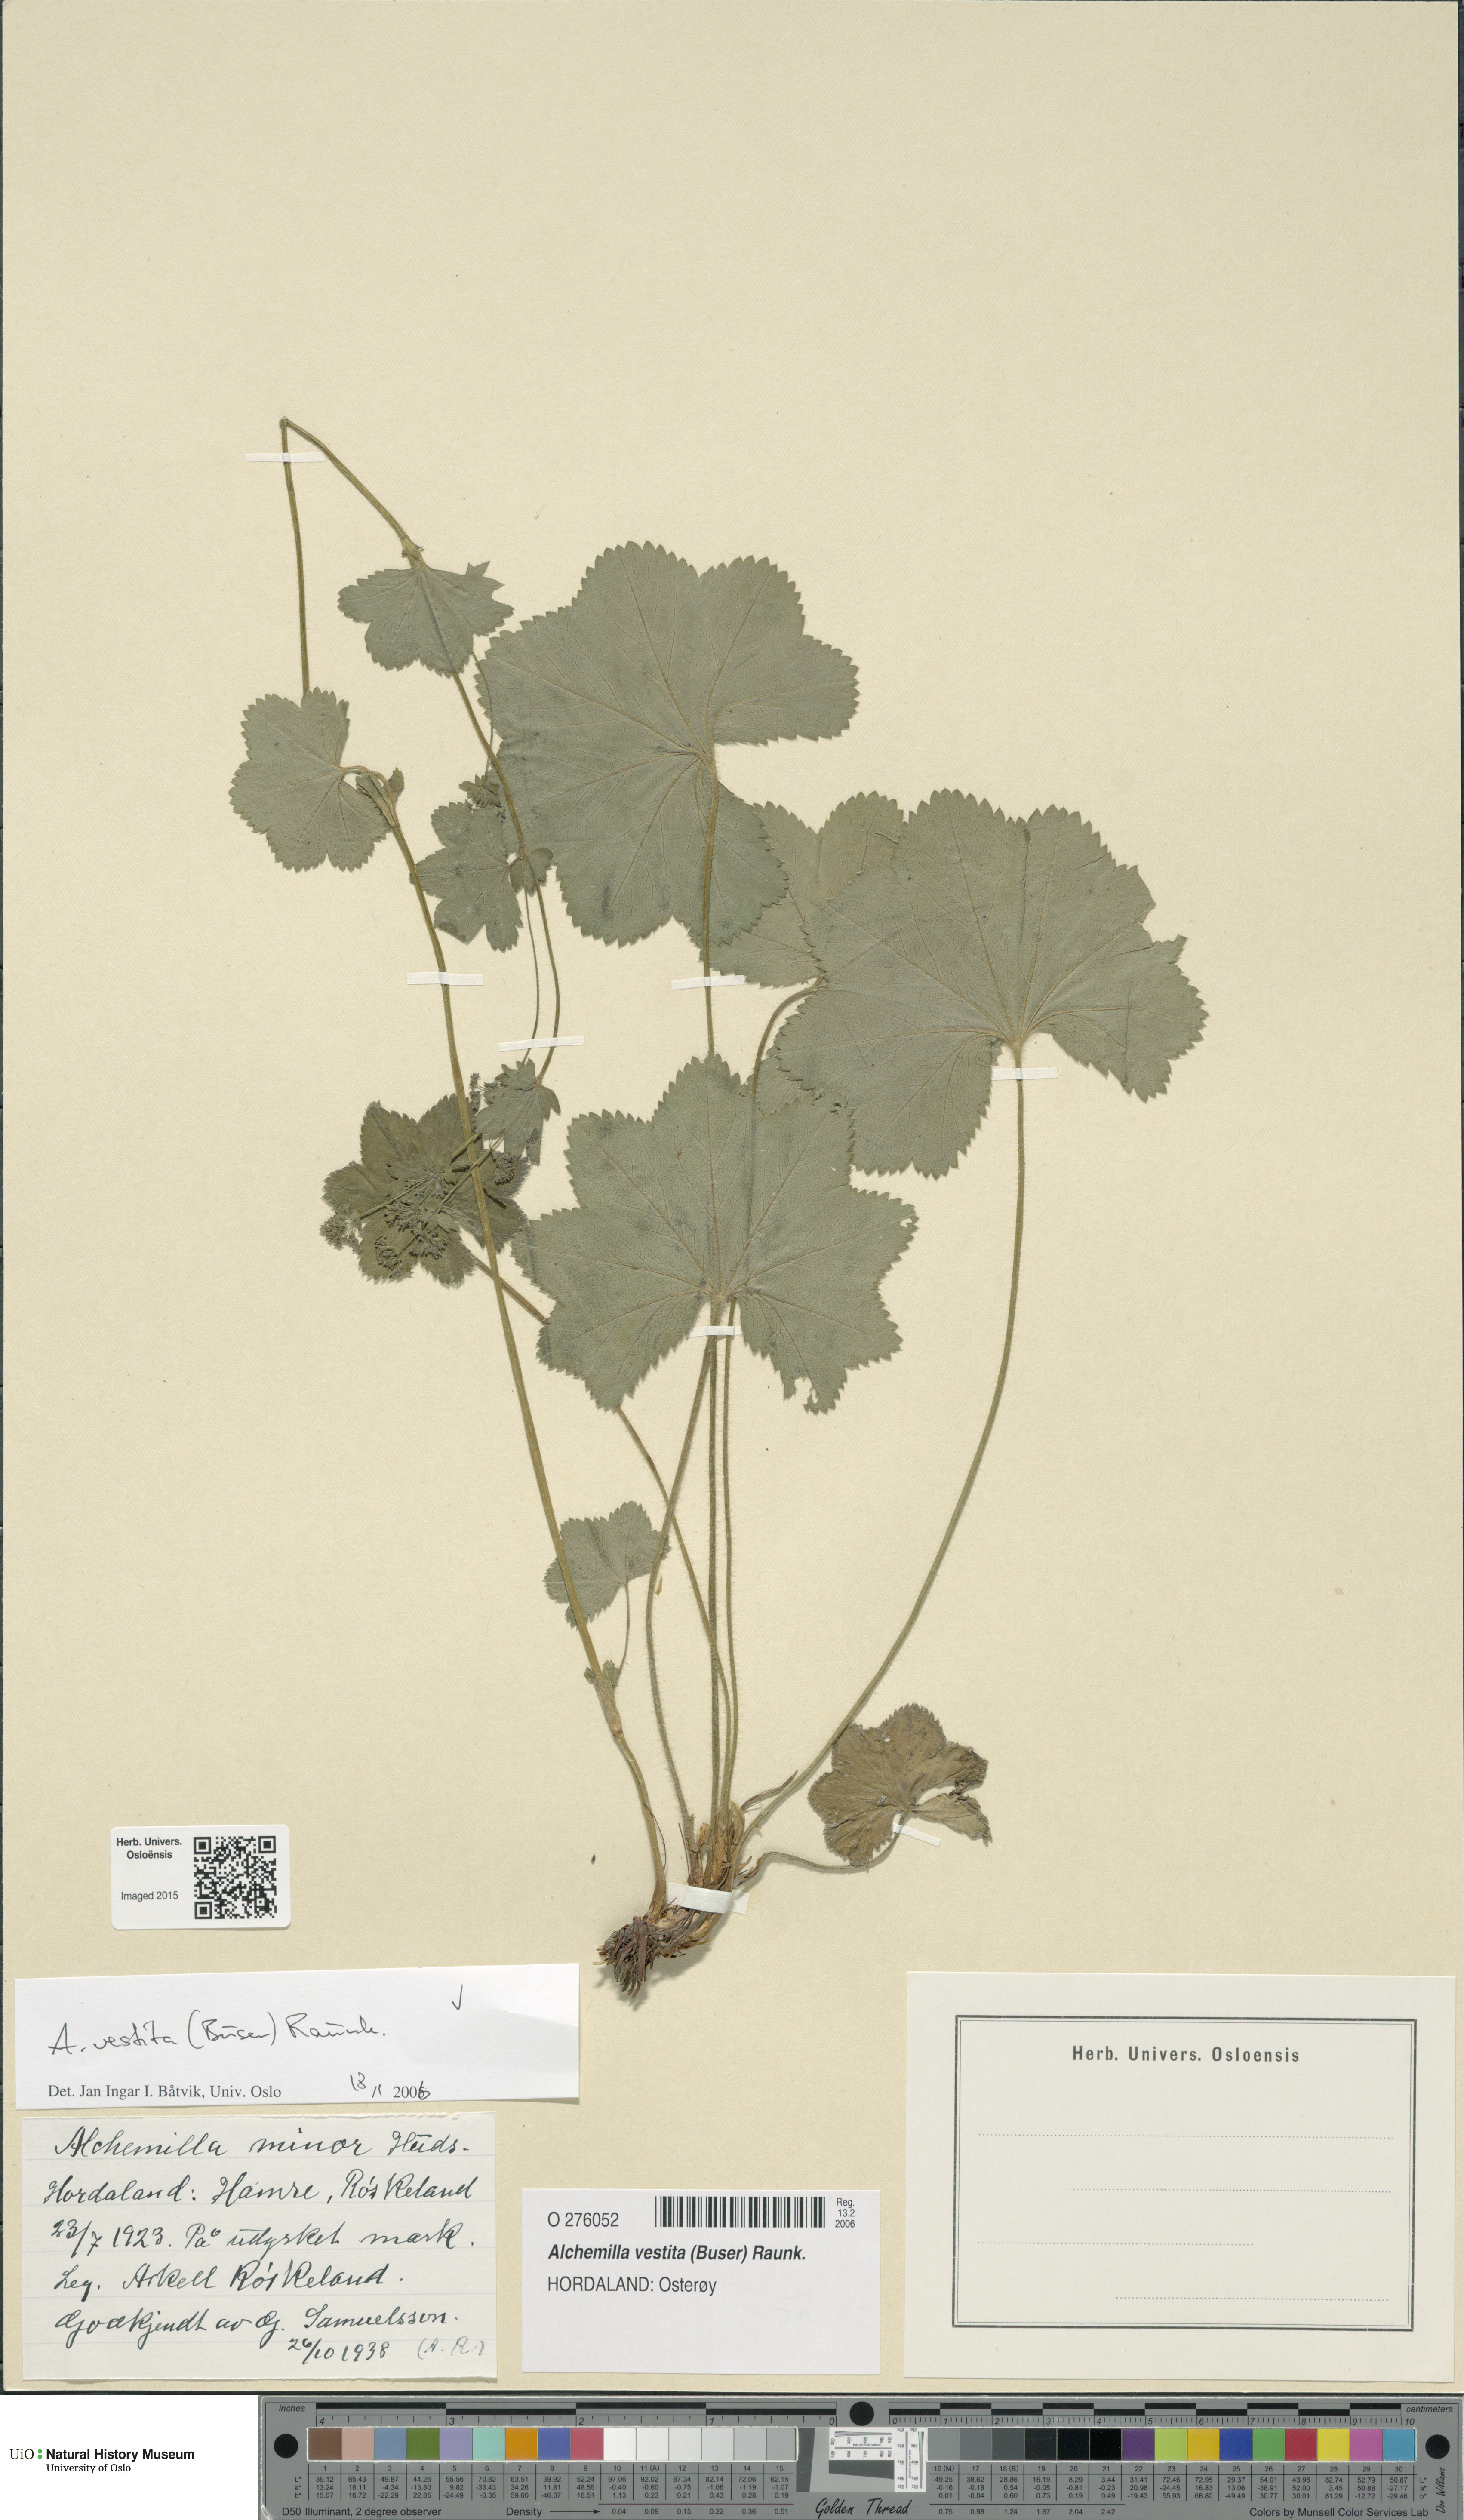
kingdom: Plantae
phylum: Tracheophyta
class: Magnoliopsida
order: Rosales
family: Rosaceae
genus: Alchemilla
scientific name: Alchemilla filicaulis
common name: Hairy lady's-mantle
